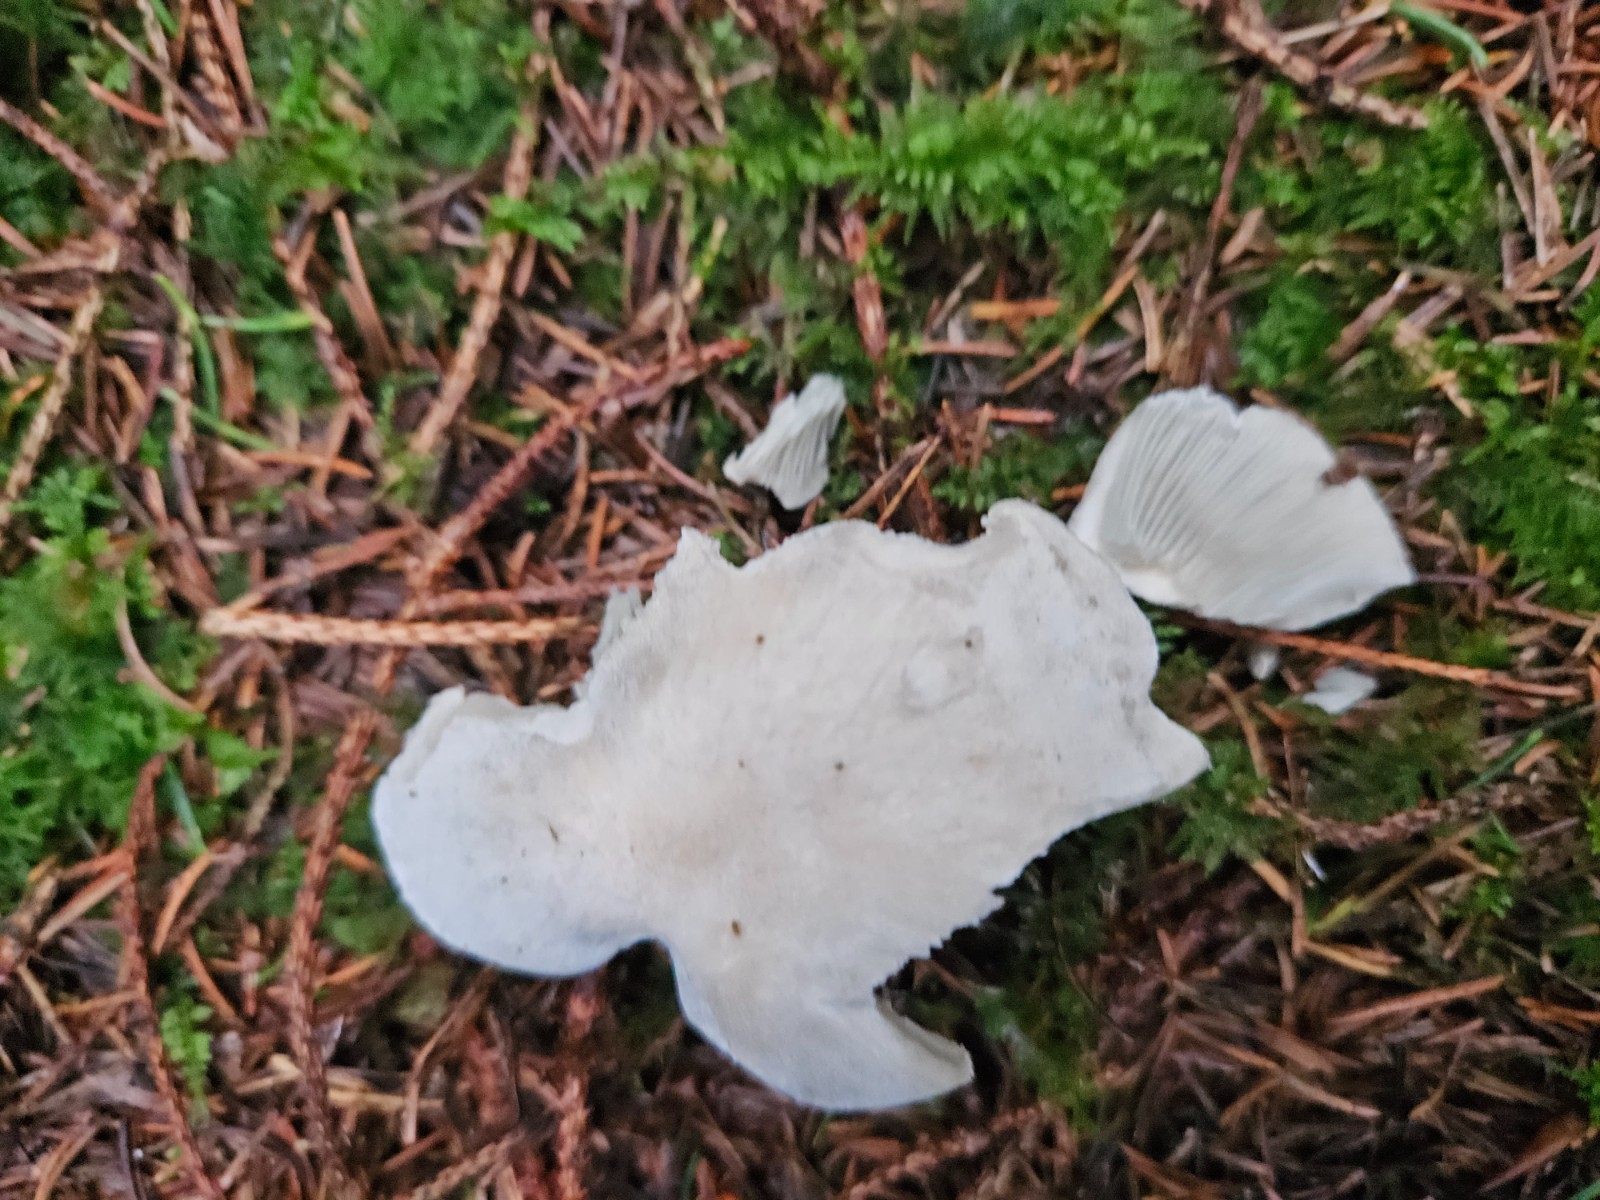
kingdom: Fungi
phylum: Basidiomycota
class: Agaricomycetes
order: Agaricales
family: Tricholomataceae
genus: Clitocybe
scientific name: Clitocybe odora
